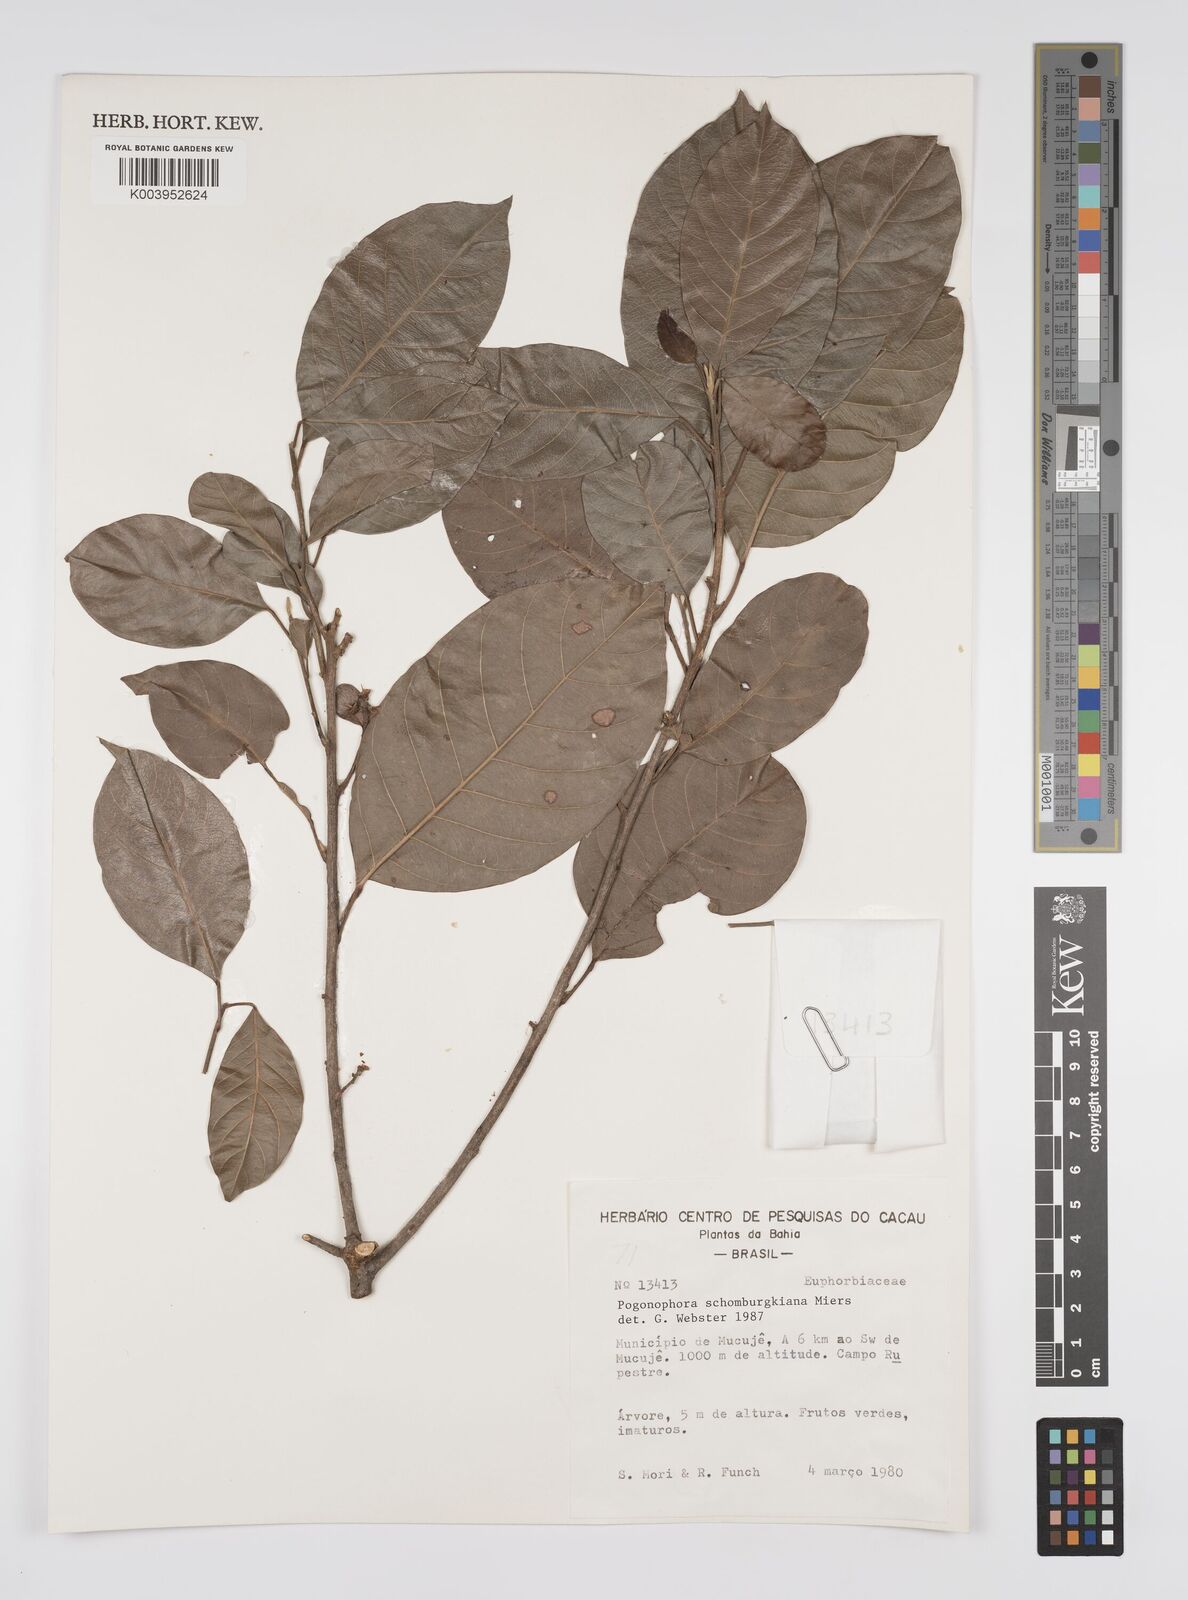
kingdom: Plantae
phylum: Tracheophyta
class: Magnoliopsida
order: Malpighiales
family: Peraceae
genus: Pogonophora
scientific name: Pogonophora schomburgkiana
